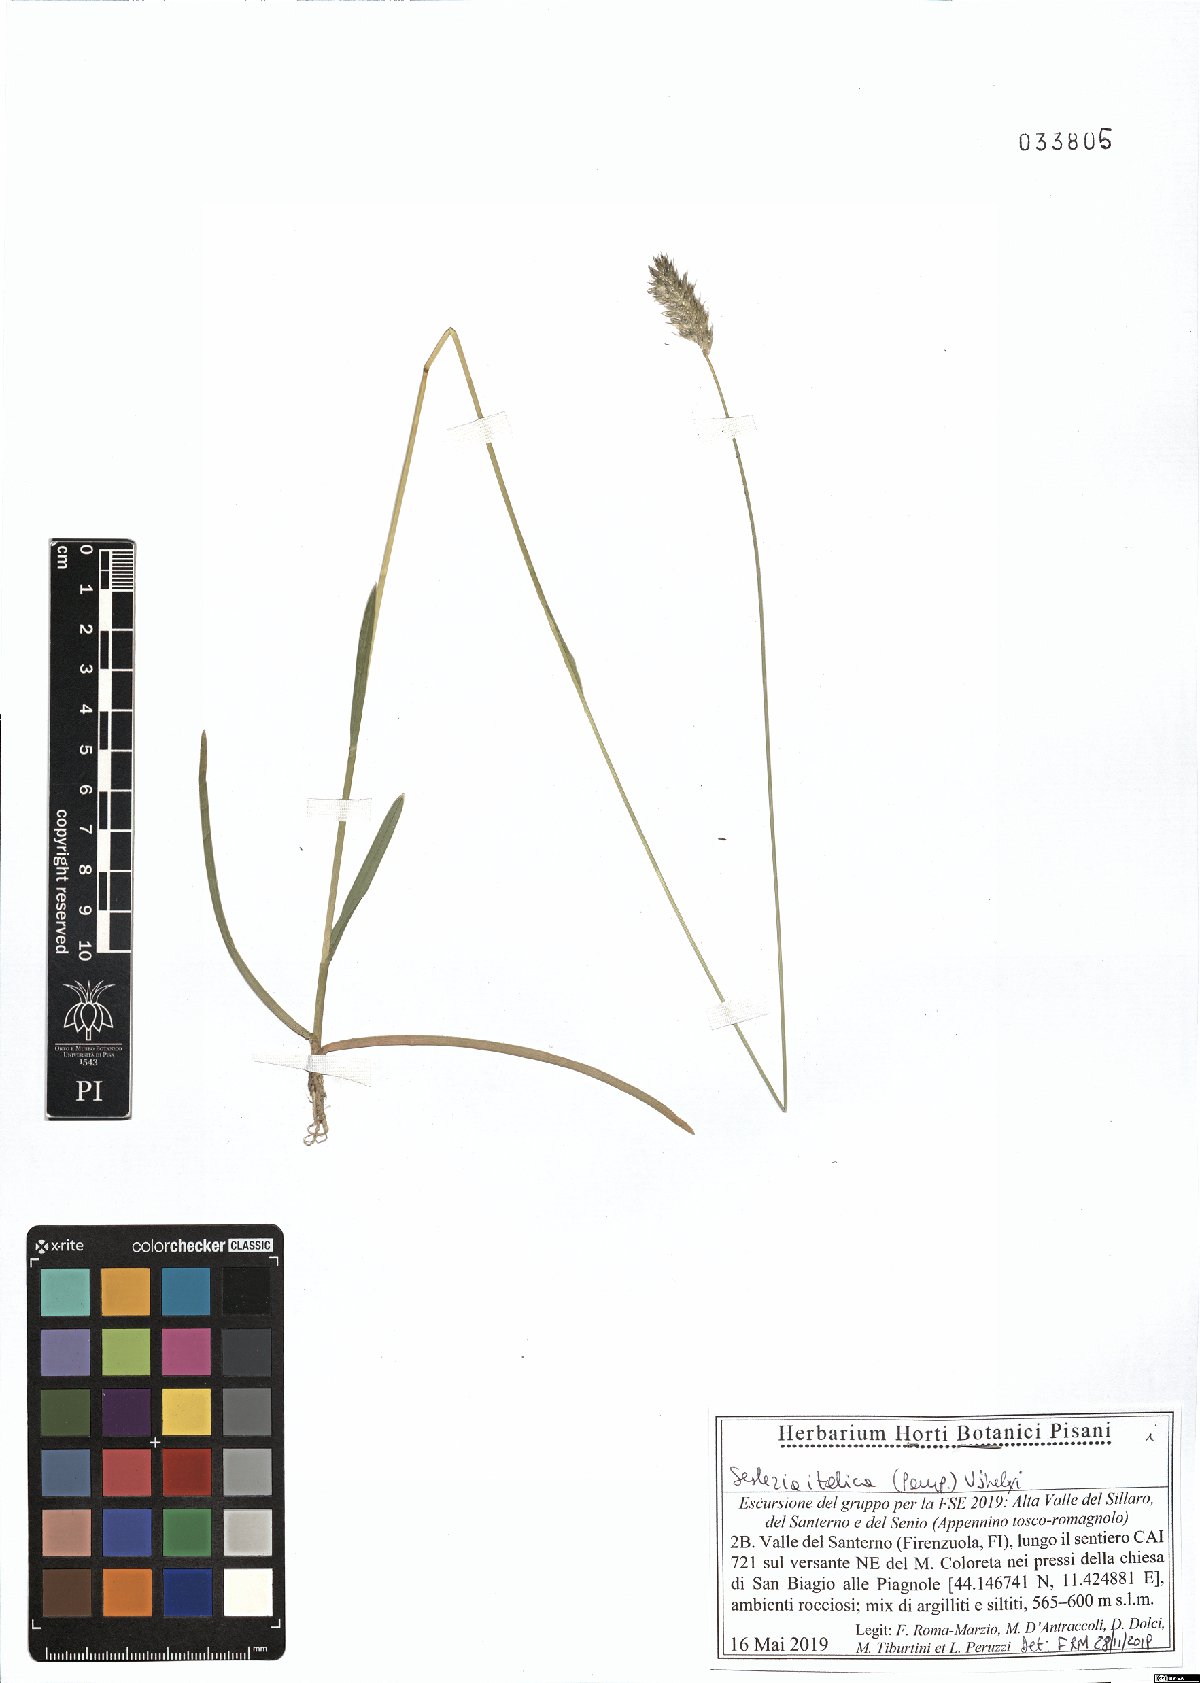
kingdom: Plantae
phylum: Tracheophyta
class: Liliopsida
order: Poales
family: Poaceae
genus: Sesleria
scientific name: Sesleria italica
